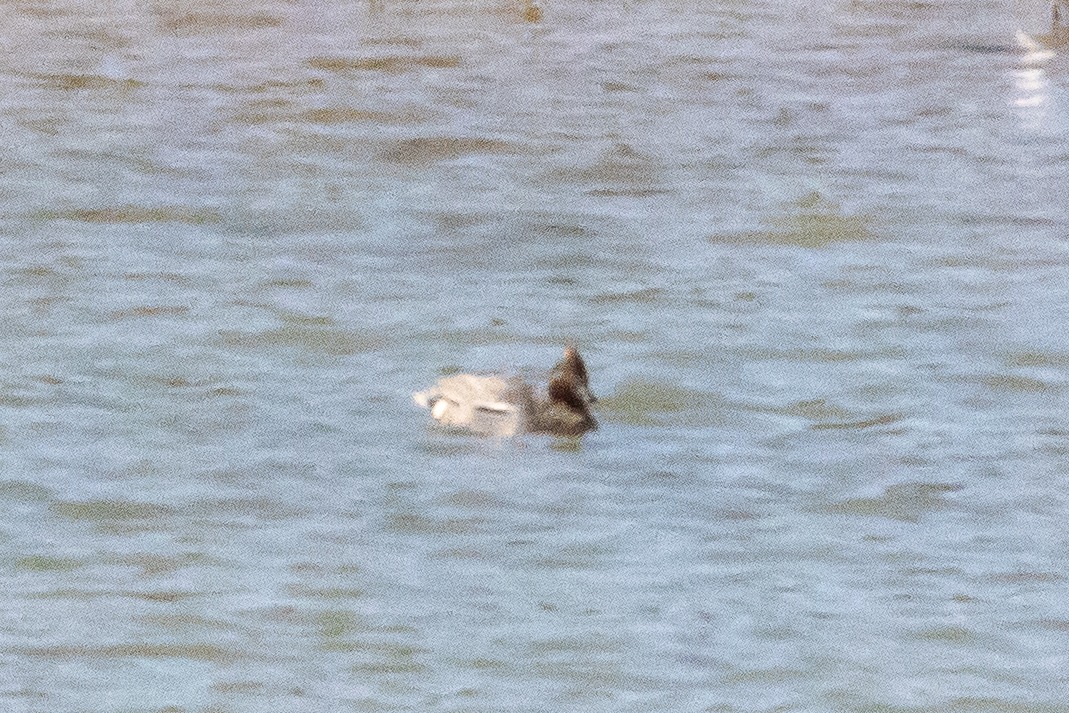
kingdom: Animalia
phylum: Chordata
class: Aves
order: Anseriformes
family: Anatidae
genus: Anas
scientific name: Anas crecca
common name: Krikand
